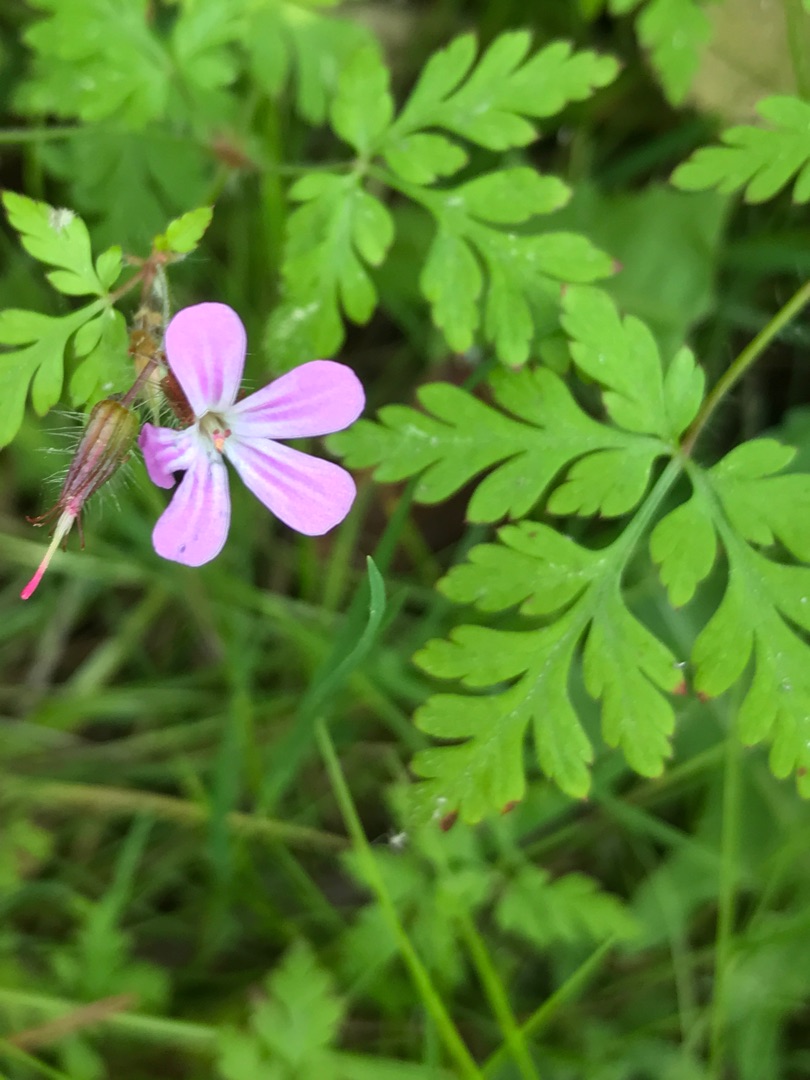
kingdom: Plantae
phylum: Tracheophyta
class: Magnoliopsida
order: Geraniales
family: Geraniaceae
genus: Geranium
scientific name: Geranium robertianum
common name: Stinkende storkenæb
